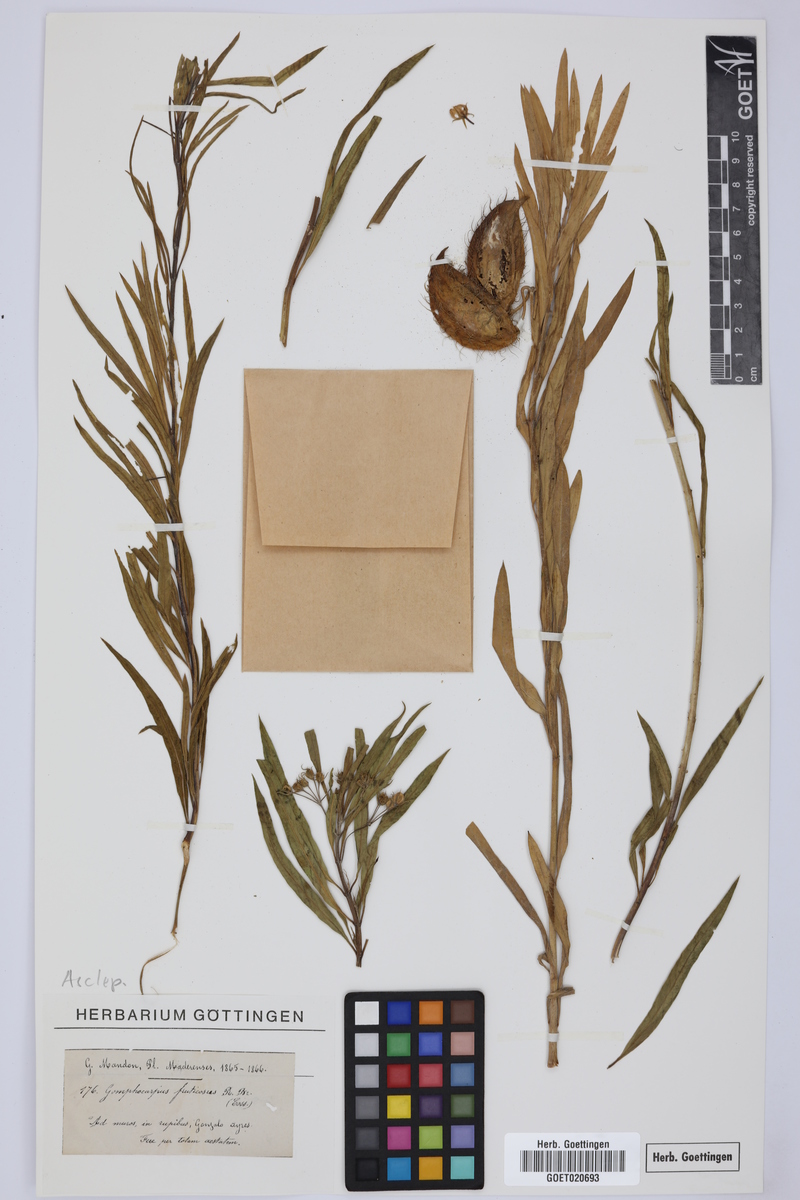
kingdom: Plantae
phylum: Tracheophyta
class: Magnoliopsida
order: Gentianales
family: Apocynaceae
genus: Gomphocarpus
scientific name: Gomphocarpus physocarpus
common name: Balloon cotton bush
